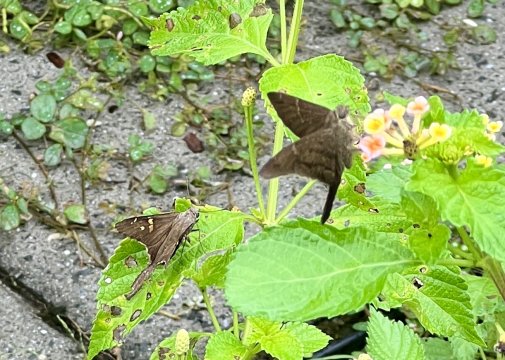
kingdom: Animalia
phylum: Arthropoda
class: Insecta
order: Lepidoptera
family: Hesperiidae
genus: Urbanus
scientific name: Urbanus procne
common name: Brown Longtail
